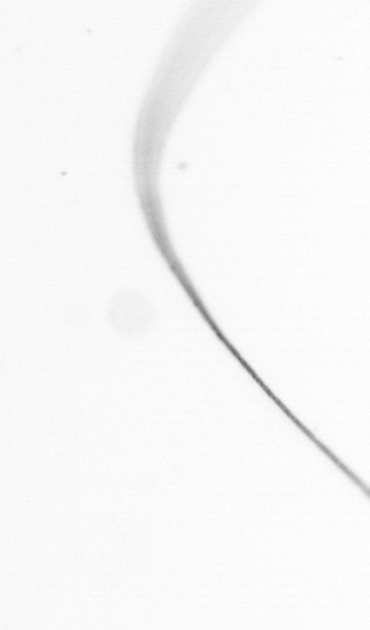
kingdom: Chromista
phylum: Ochrophyta
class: Bacillariophyceae
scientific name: Bacillariophyceae
